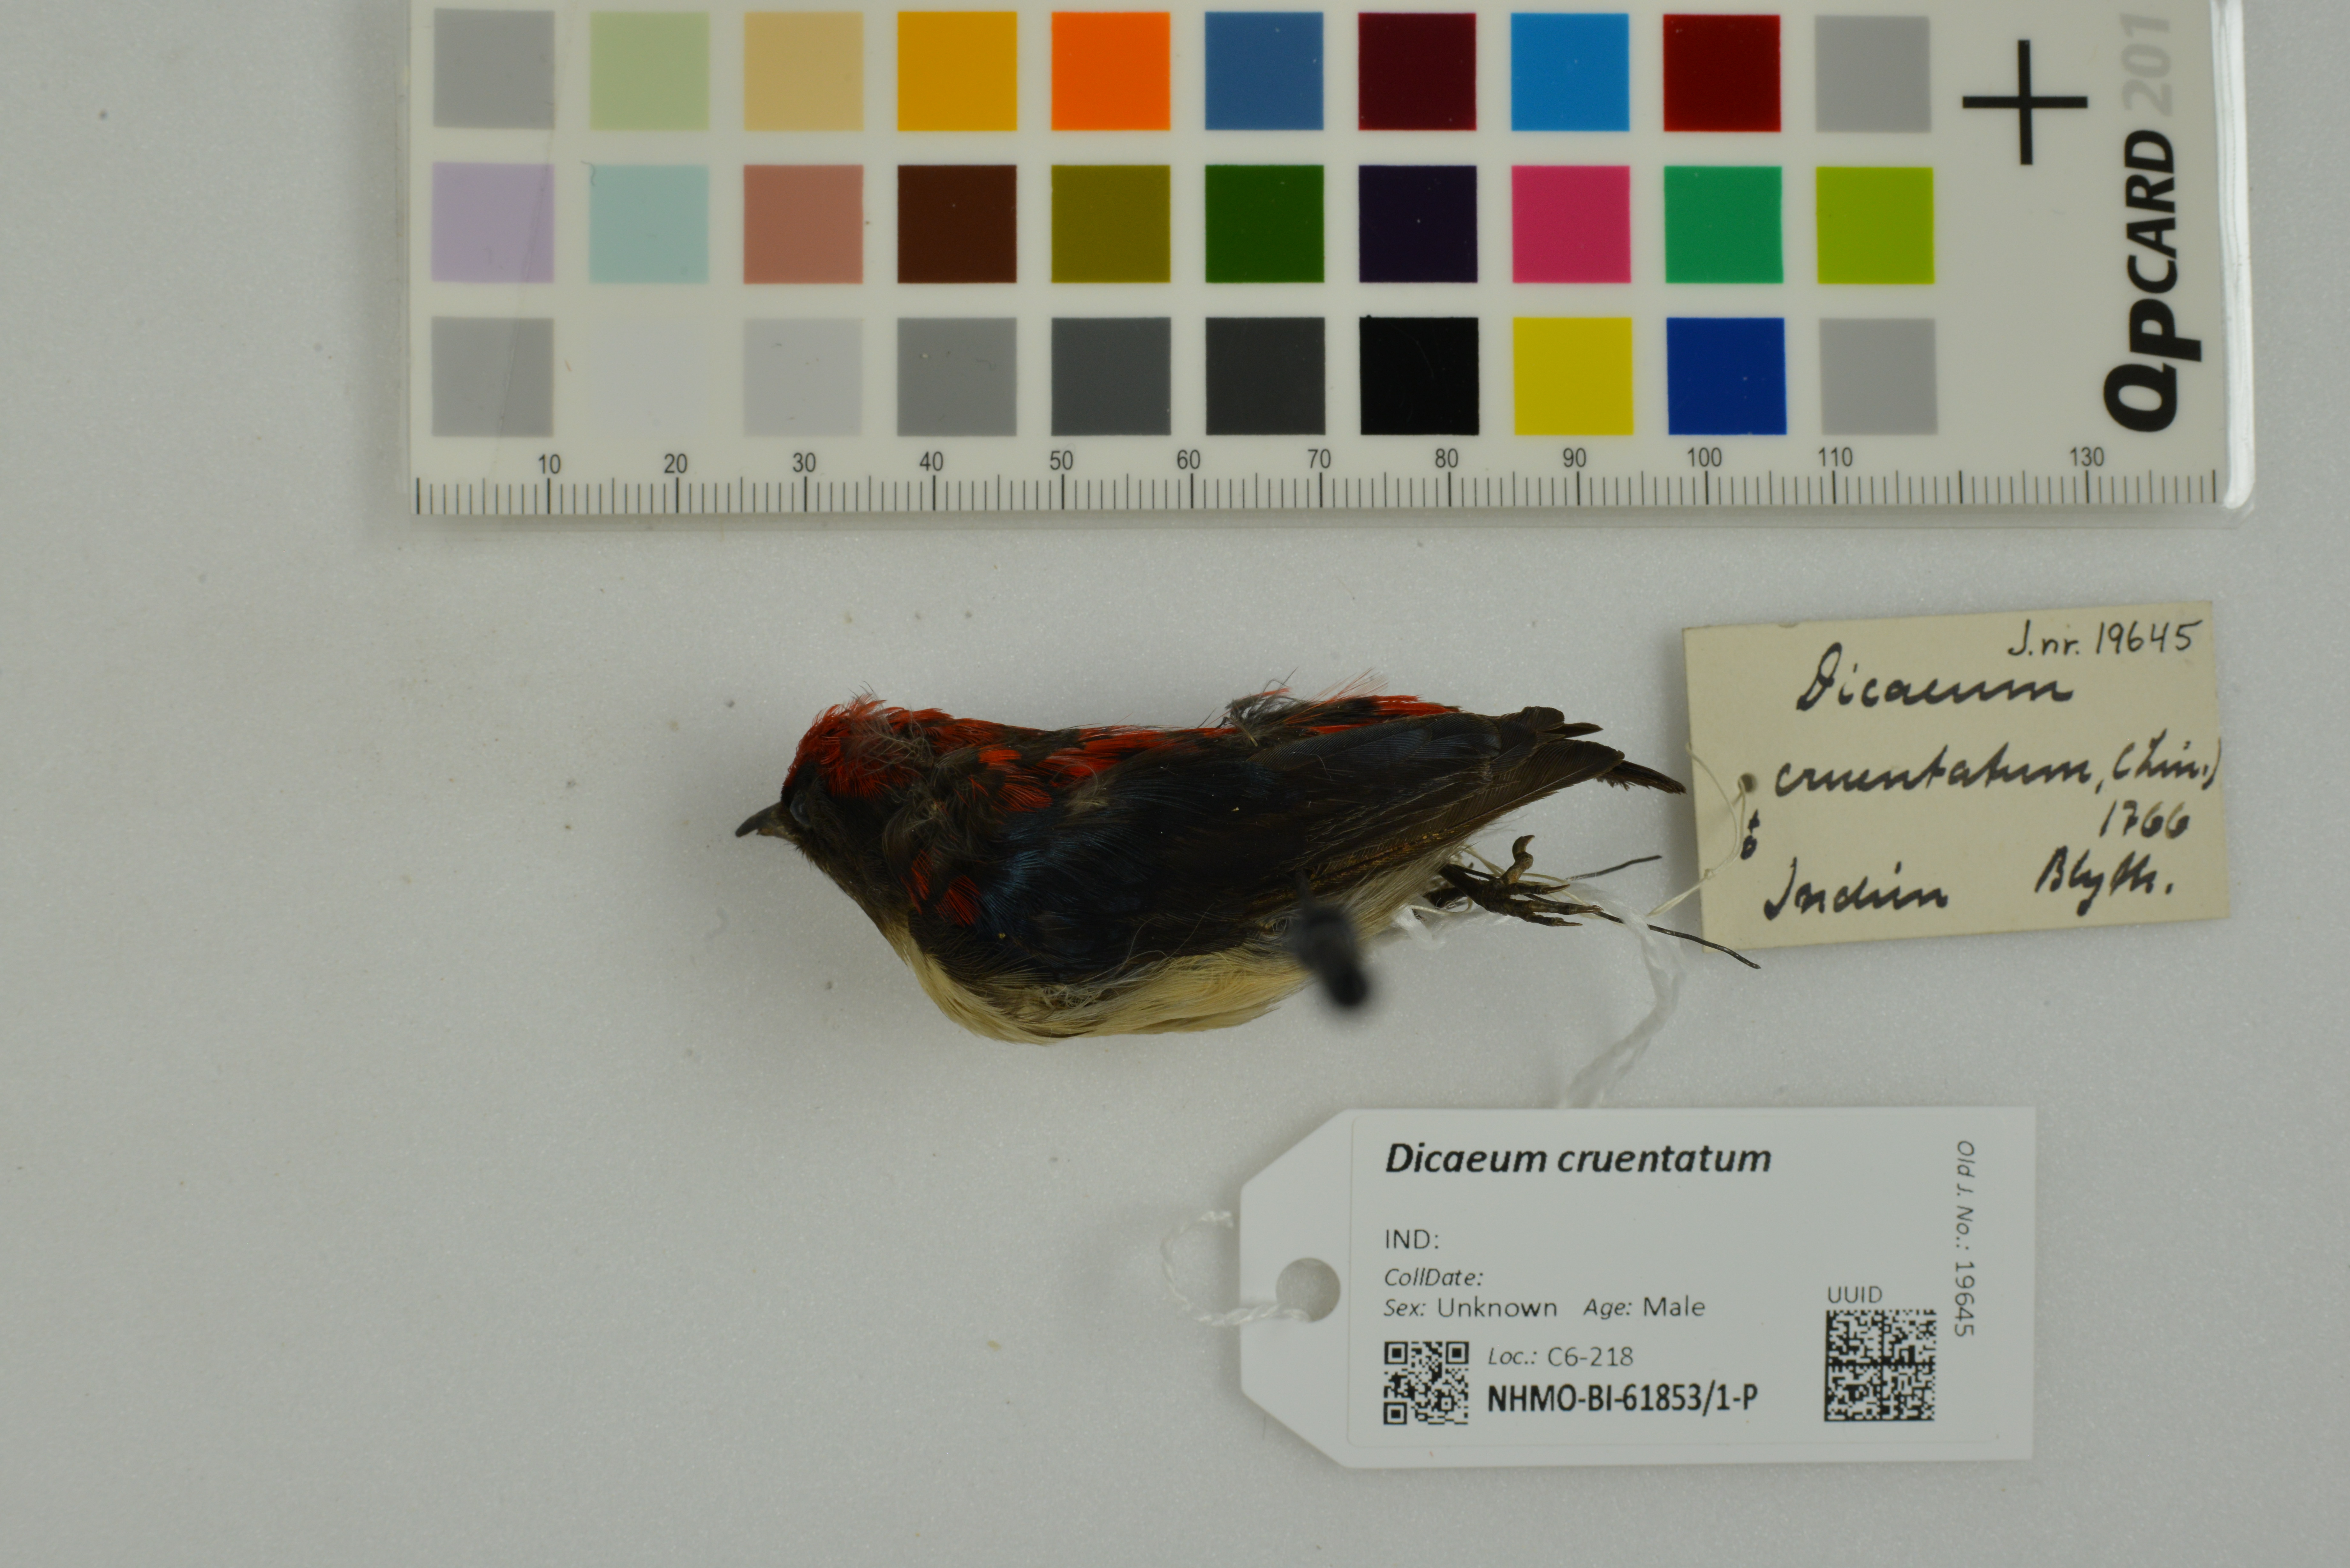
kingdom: Animalia
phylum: Chordata
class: Aves
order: Passeriformes
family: Dicaeidae
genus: Dicaeum
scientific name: Dicaeum cruentatum
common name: Scarlet-backed flowerpecker
